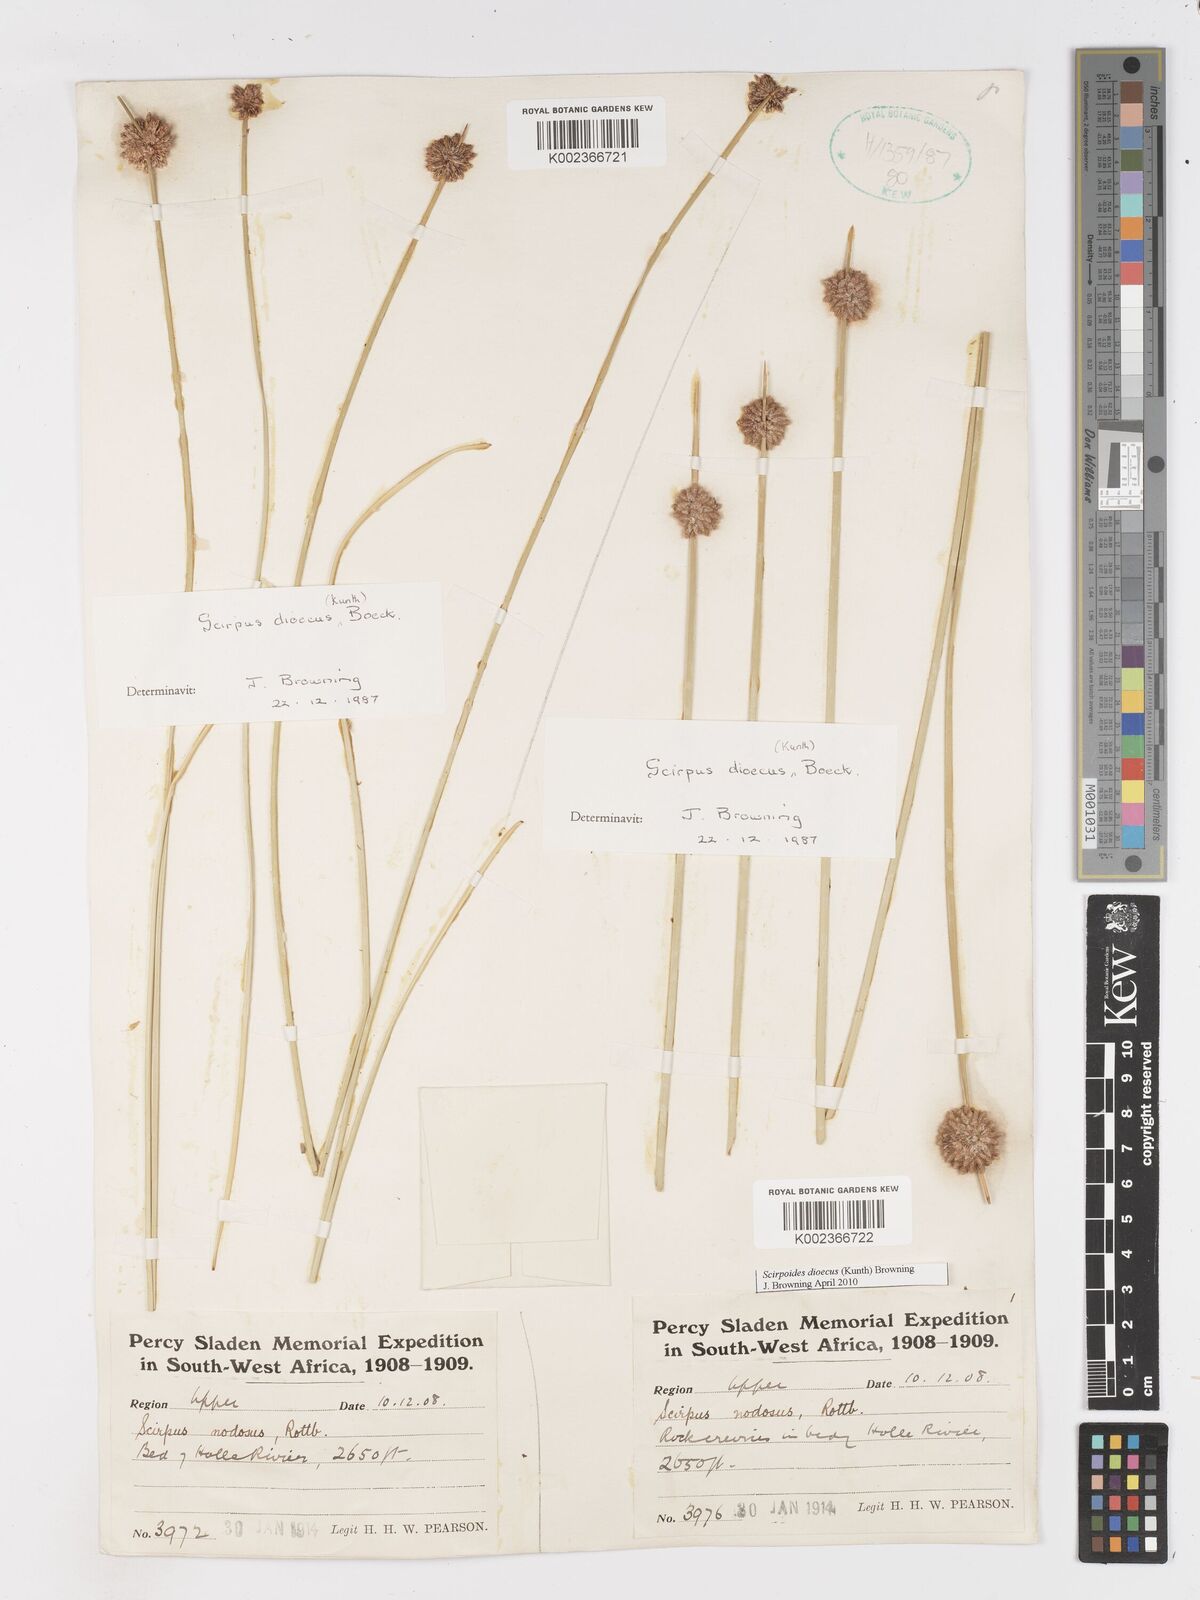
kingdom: Plantae
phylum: Tracheophyta
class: Liliopsida
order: Poales
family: Cyperaceae
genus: Scirpoides
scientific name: Scirpoides
